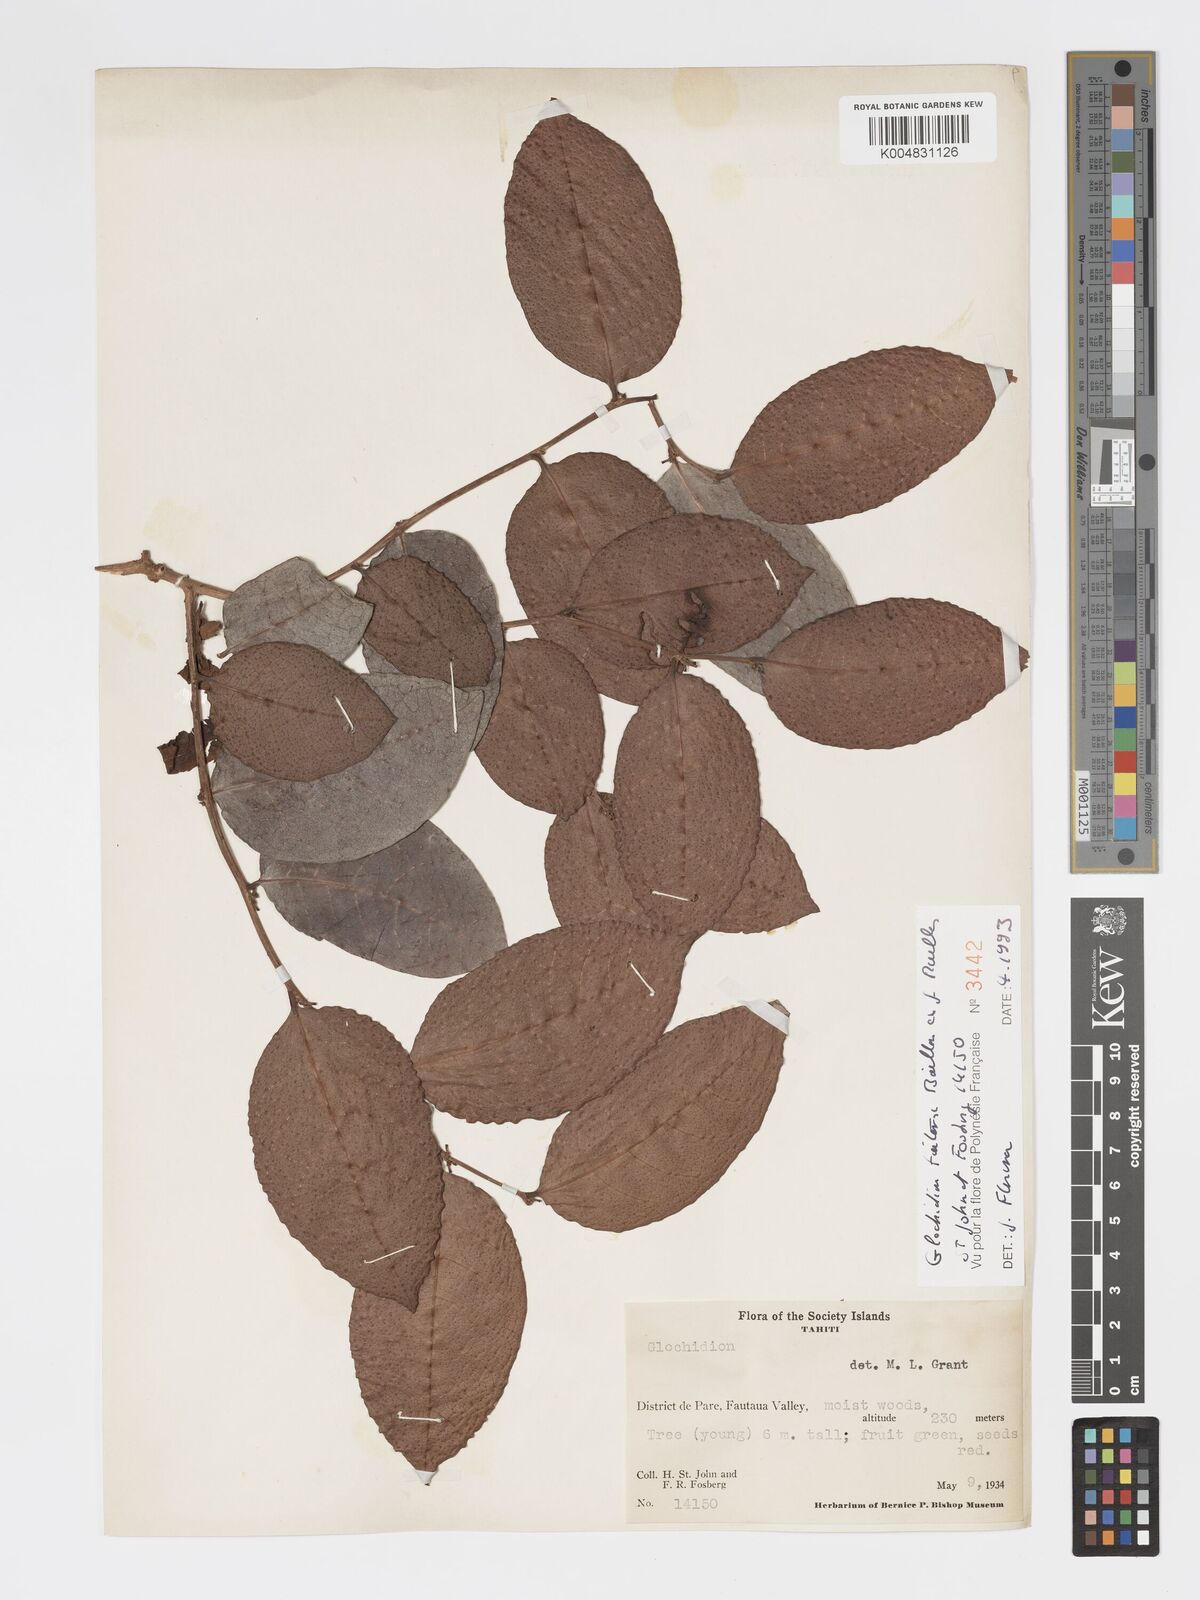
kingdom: Plantae
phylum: Tracheophyta
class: Magnoliopsida
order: Malpighiales
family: Phyllanthaceae
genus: Glochidion
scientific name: Glochidion taitense
